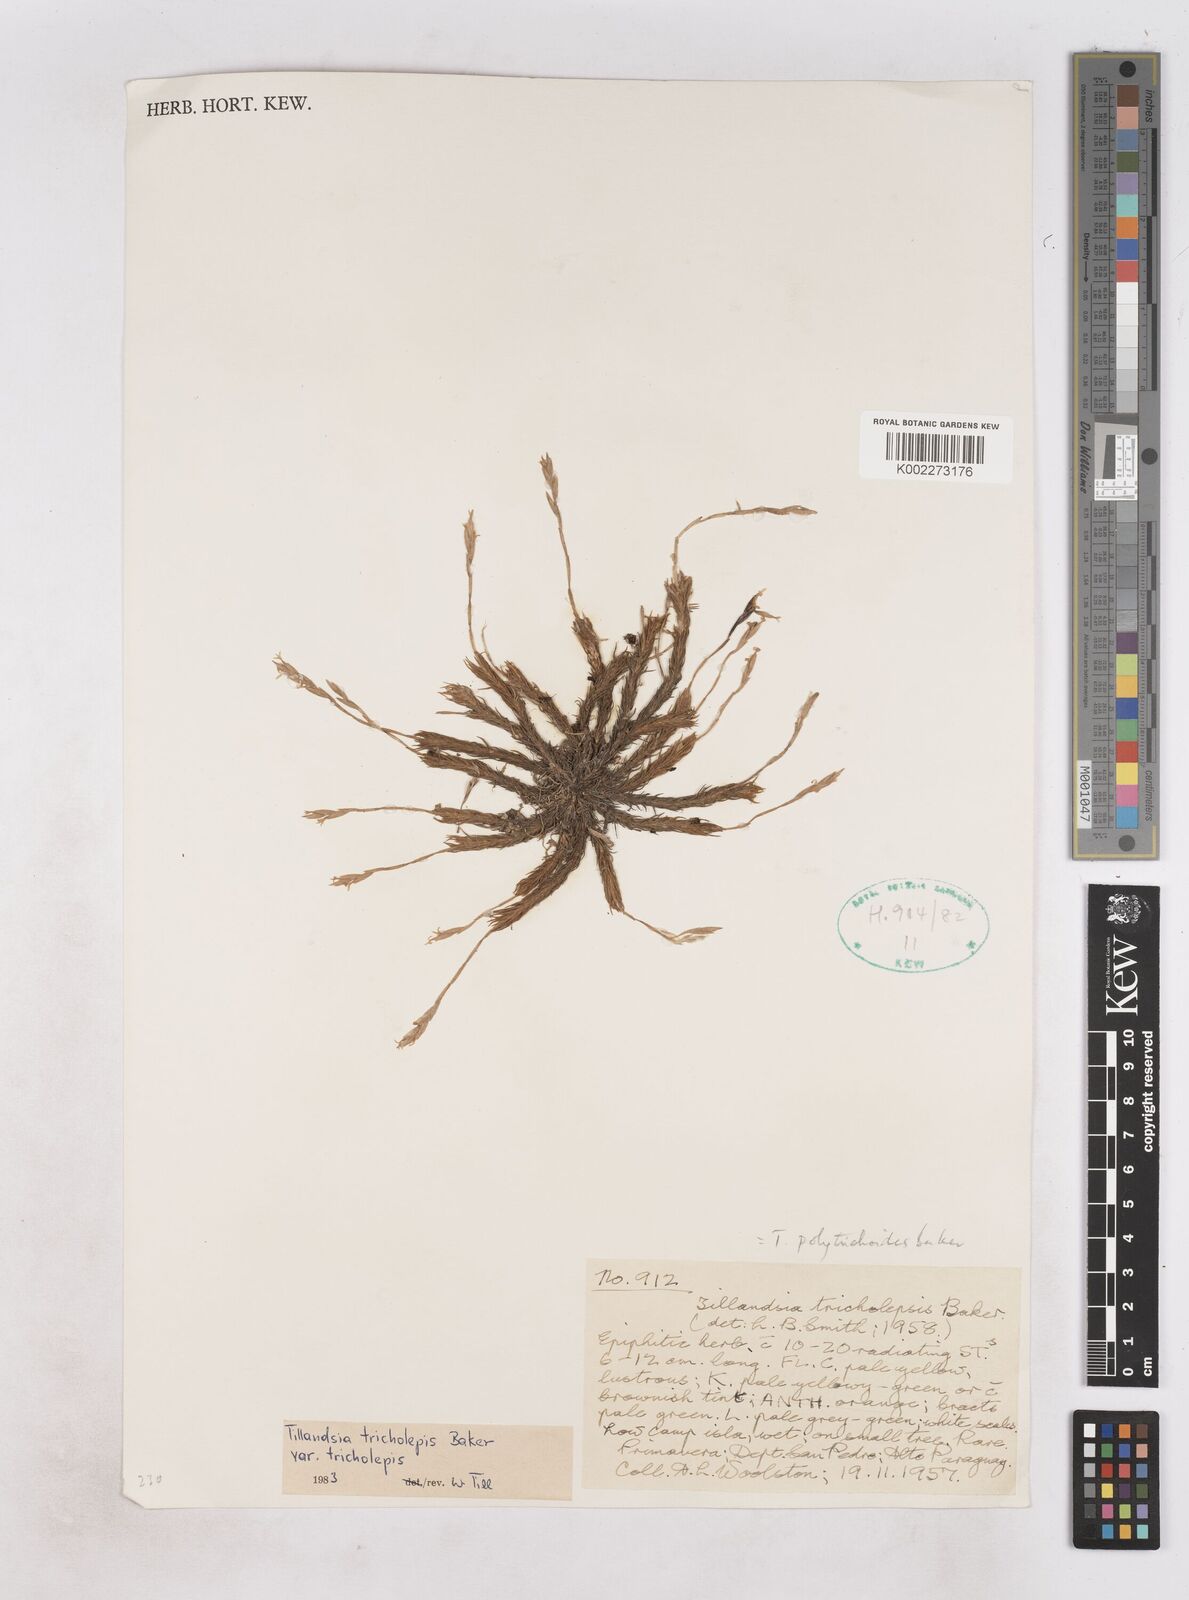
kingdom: Plantae
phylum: Tracheophyta
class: Liliopsida
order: Poales
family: Bromeliaceae
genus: Tillandsia
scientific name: Tillandsia tricholepis
